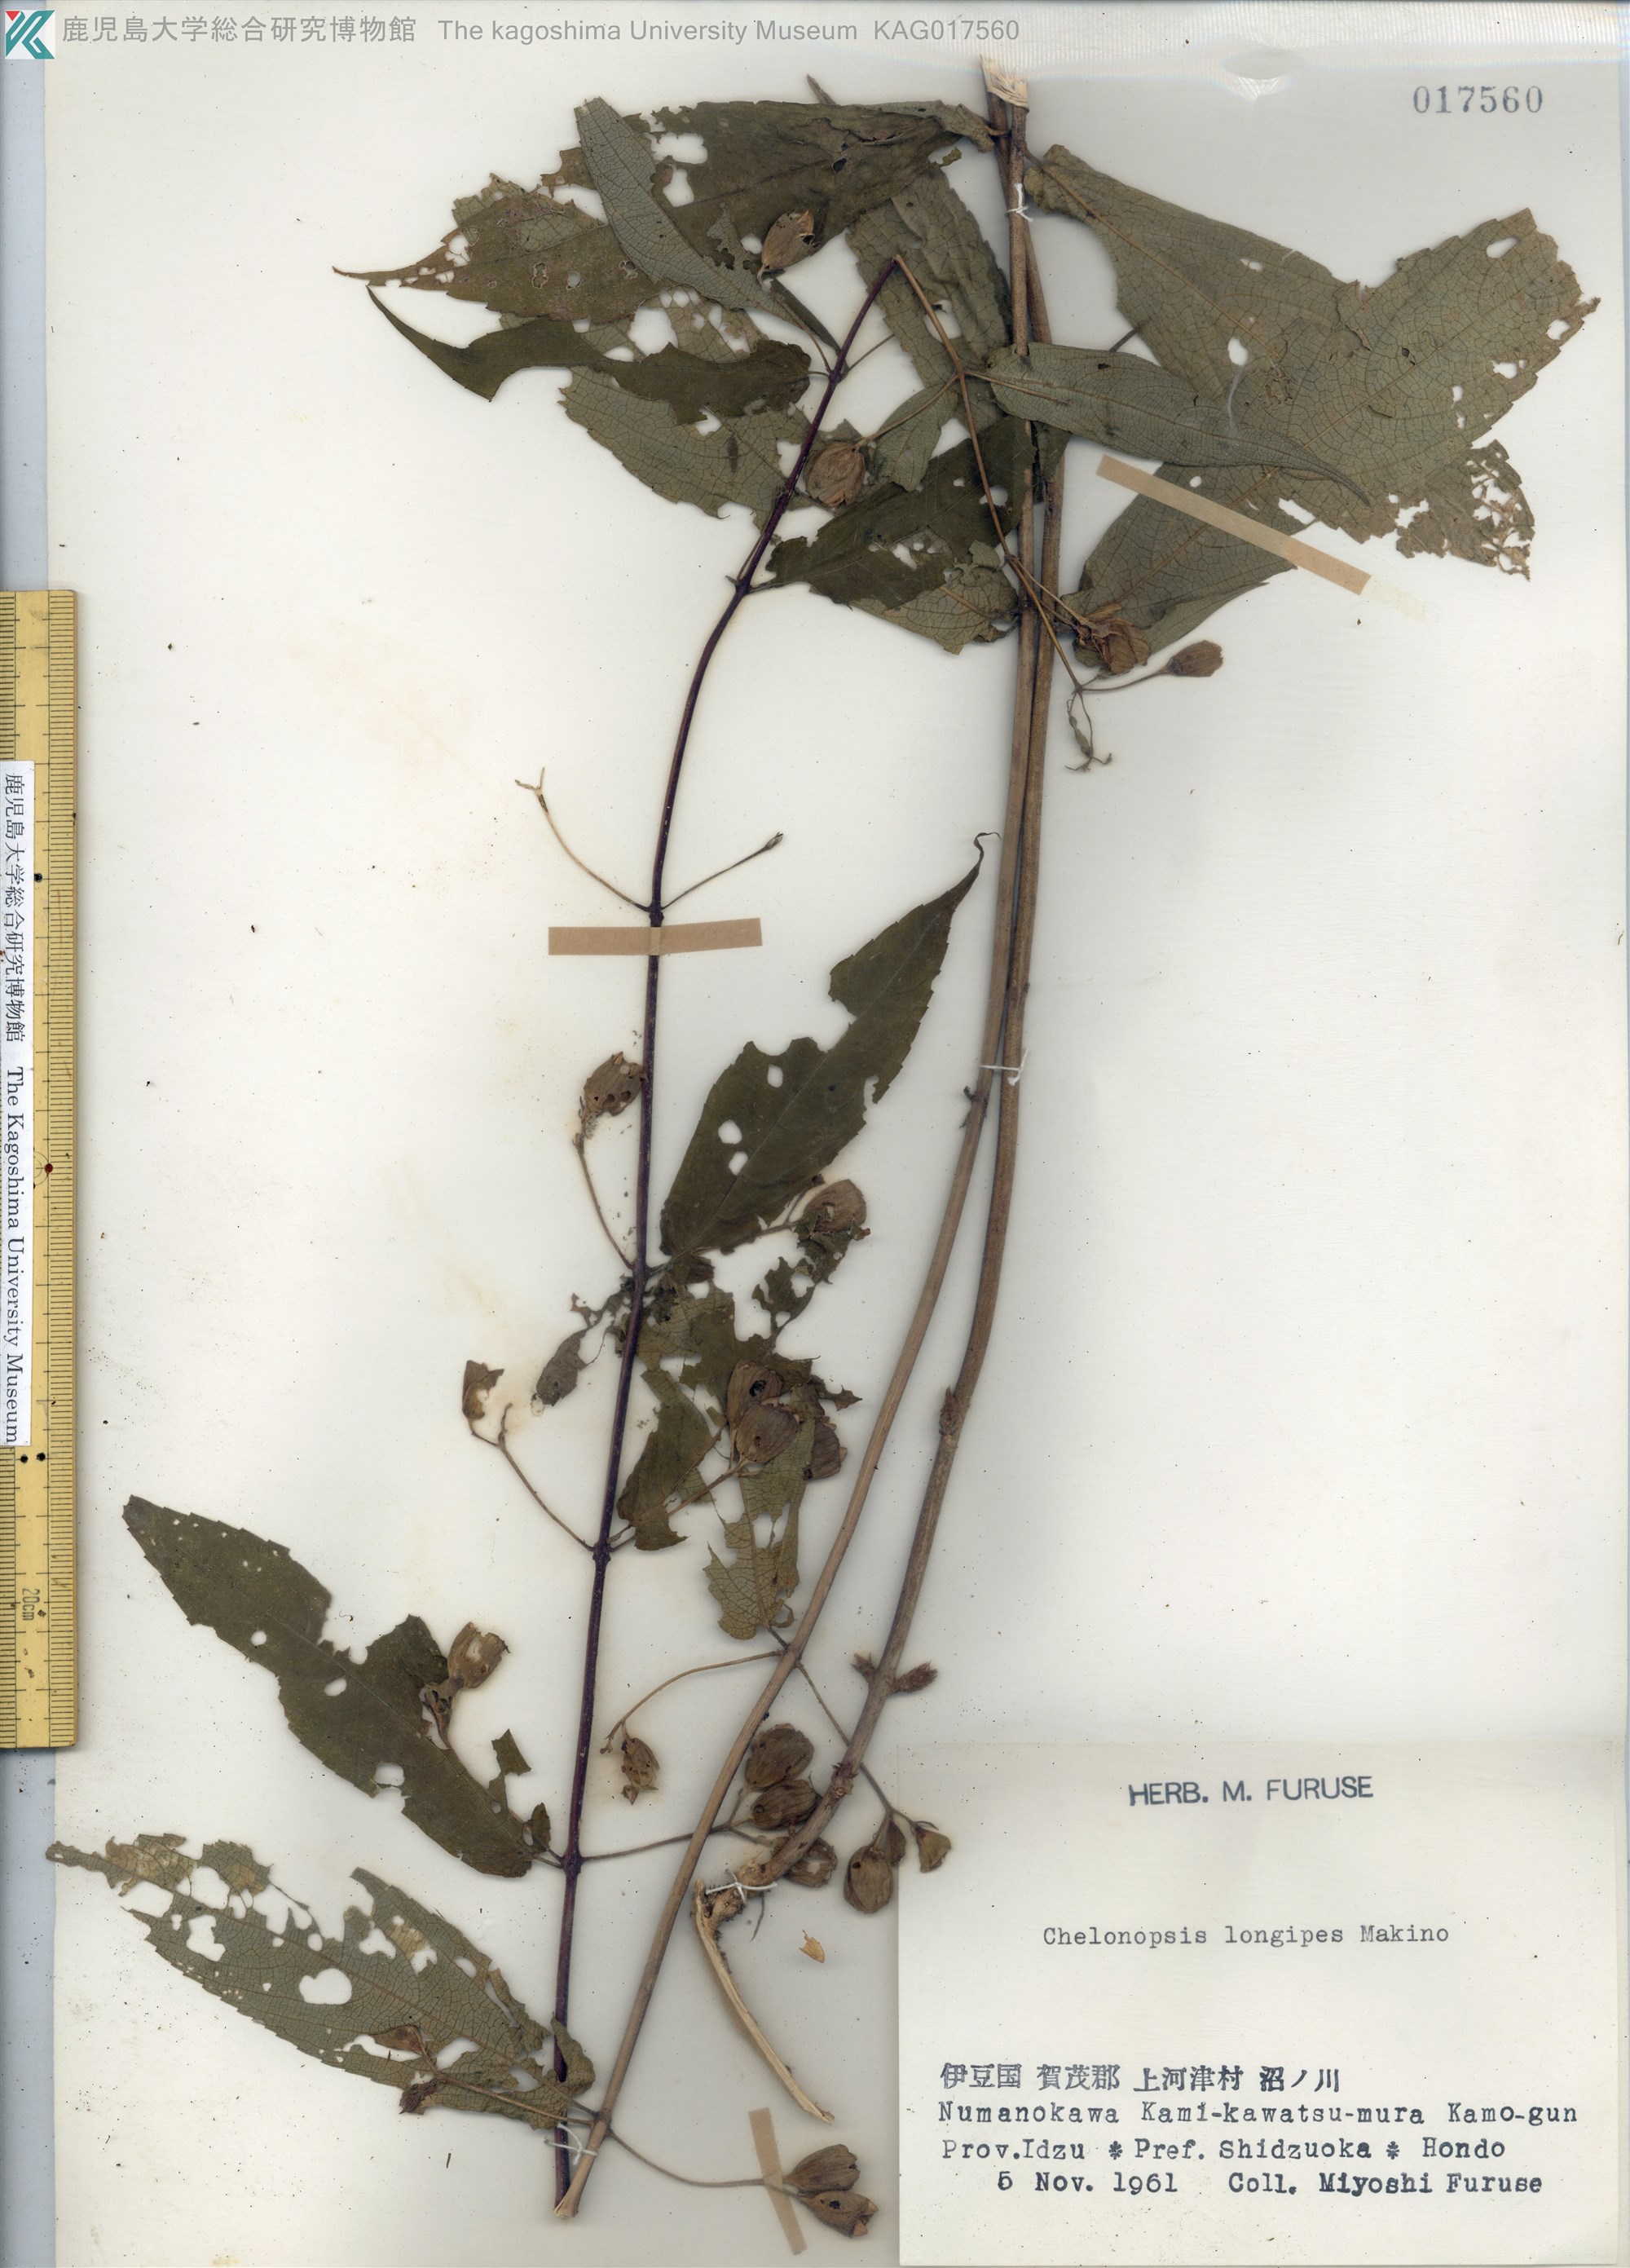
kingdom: Plantae
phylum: Tracheophyta
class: Magnoliopsida
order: Lamiales
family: Lamiaceae
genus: Chelonopsis
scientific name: Chelonopsis longipes
